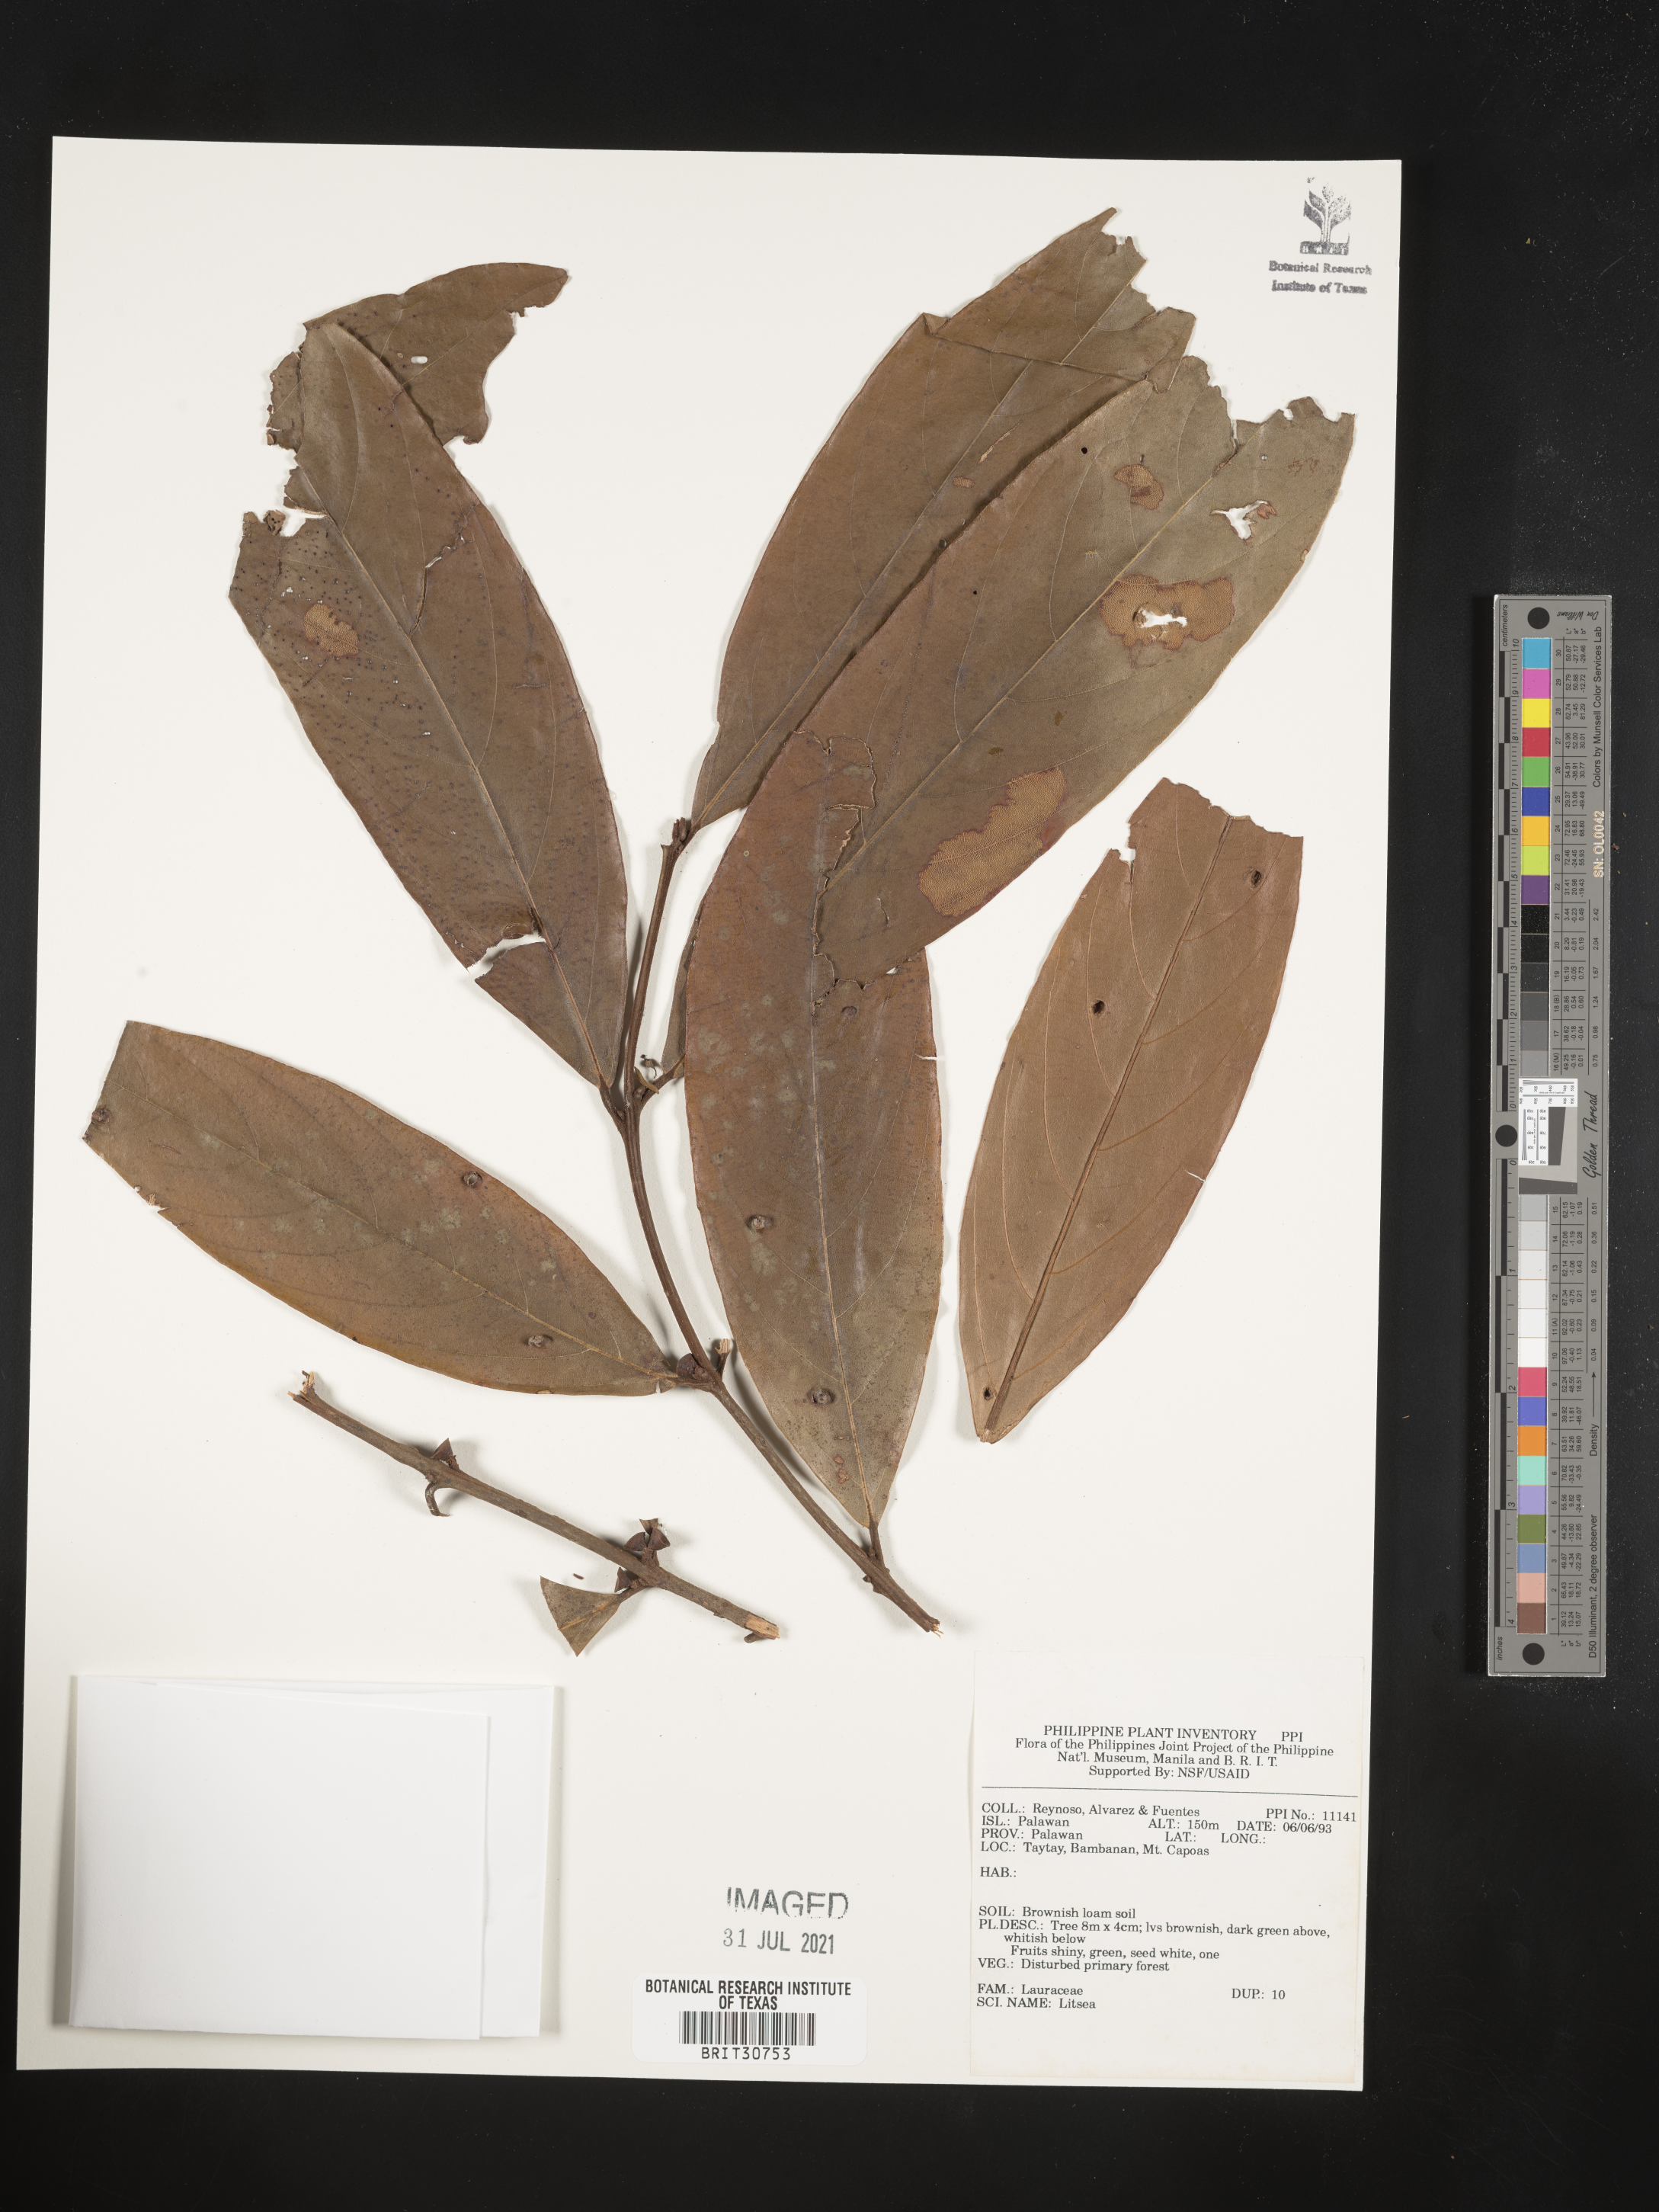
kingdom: Plantae
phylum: Tracheophyta
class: Magnoliopsida
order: Laurales
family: Lauraceae
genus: Litsea
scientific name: Litsea
